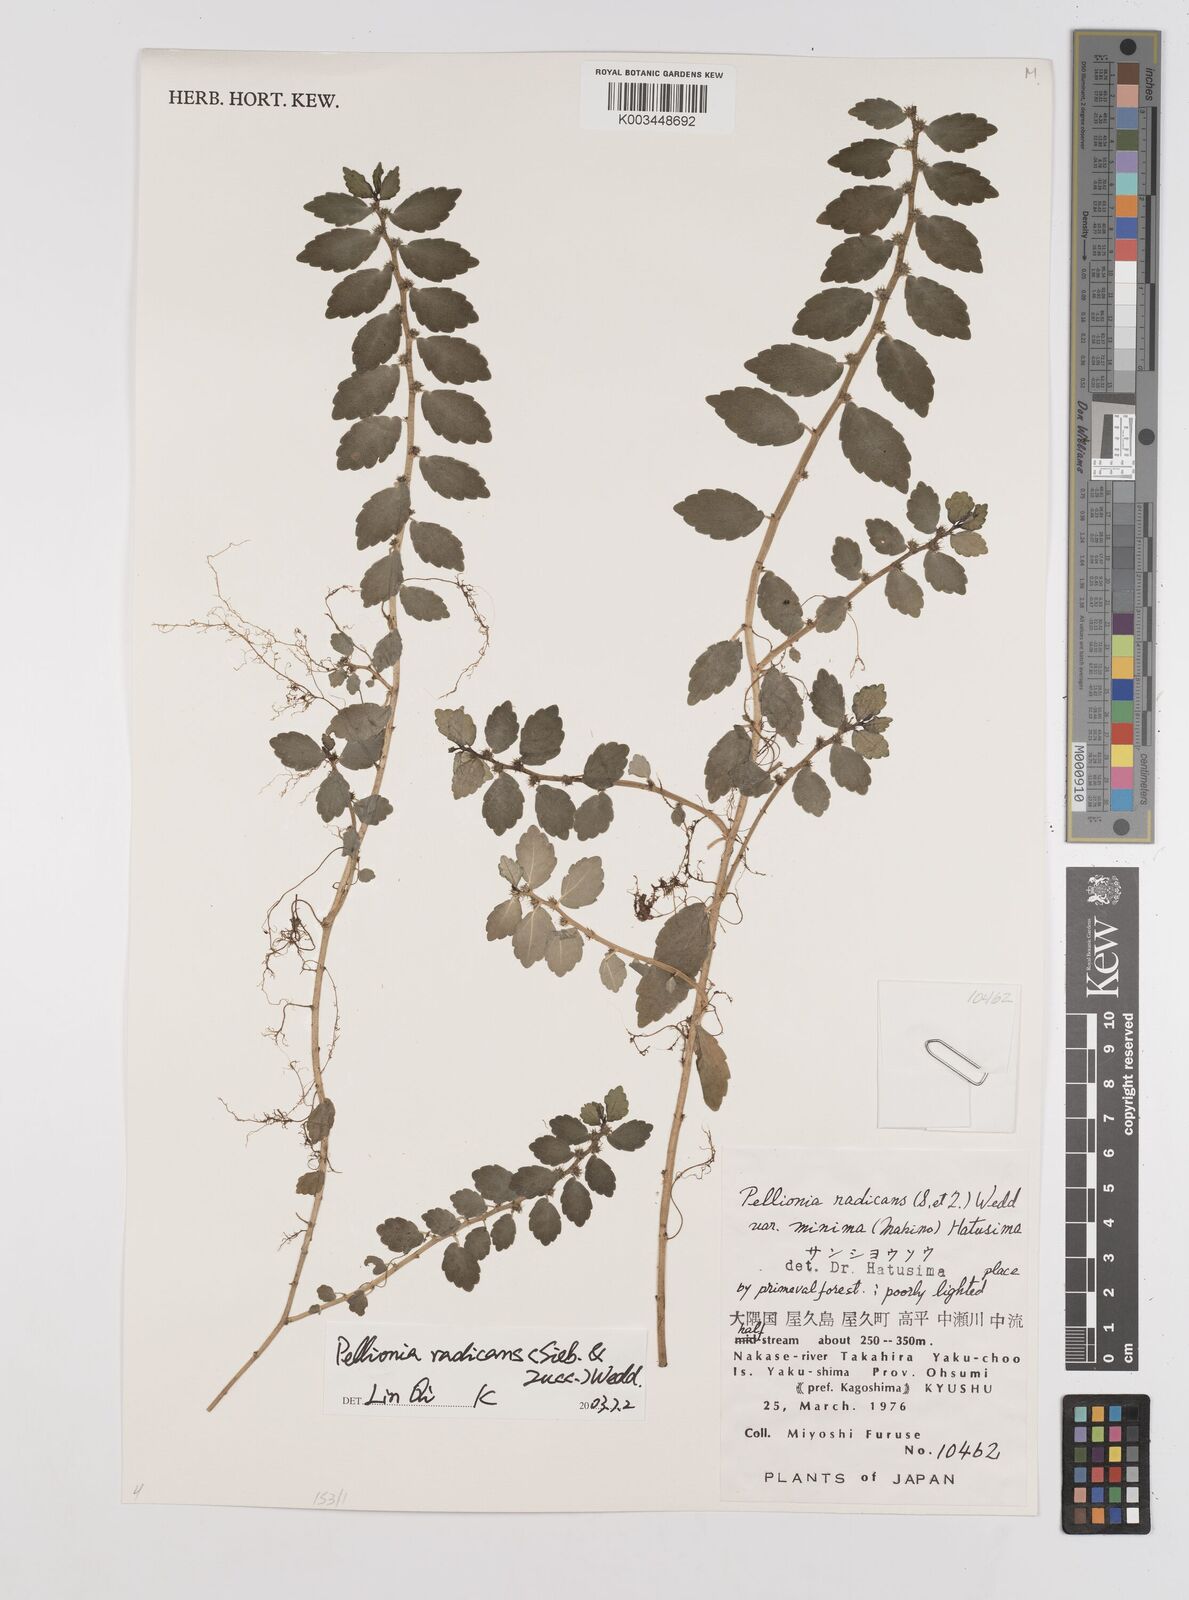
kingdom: Plantae
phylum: Tracheophyta
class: Magnoliopsida
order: Rosales
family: Urticaceae
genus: Elatostema
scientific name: Elatostema radicans
